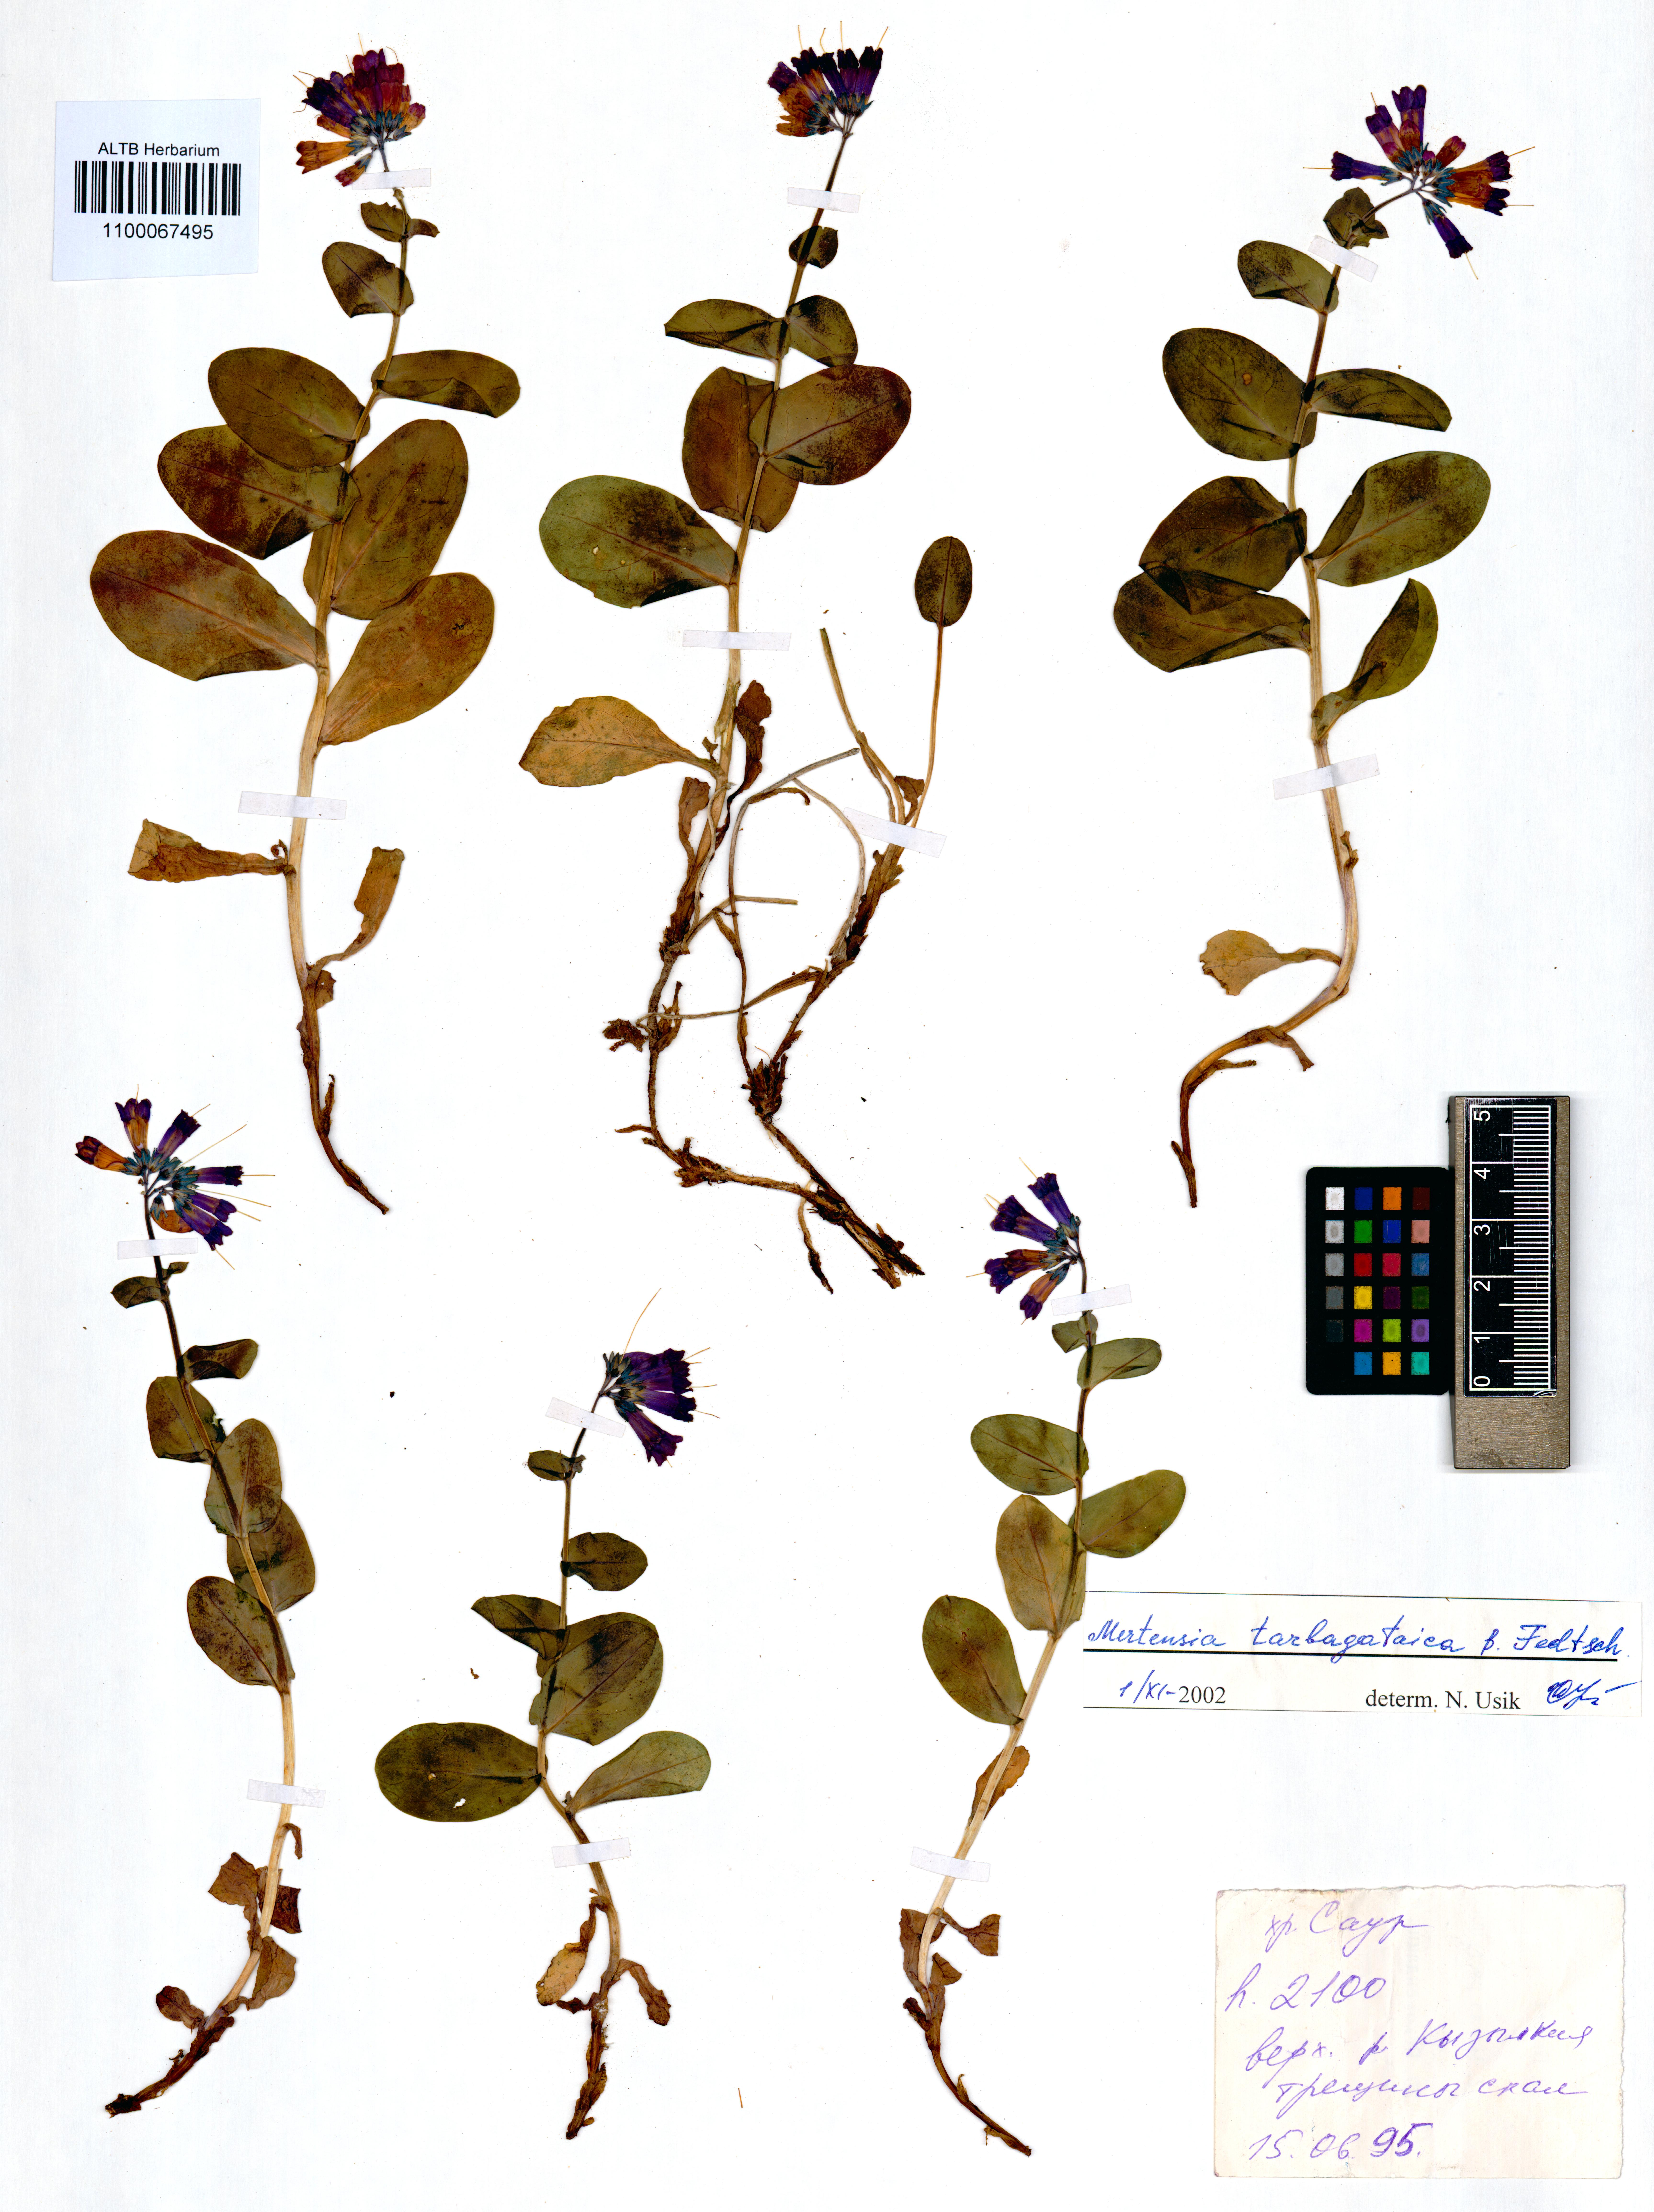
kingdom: Plantae
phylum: Tracheophyta
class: Magnoliopsida
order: Boraginales
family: Boraginaceae
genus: Mertensia
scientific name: Mertensia tarbagataica
